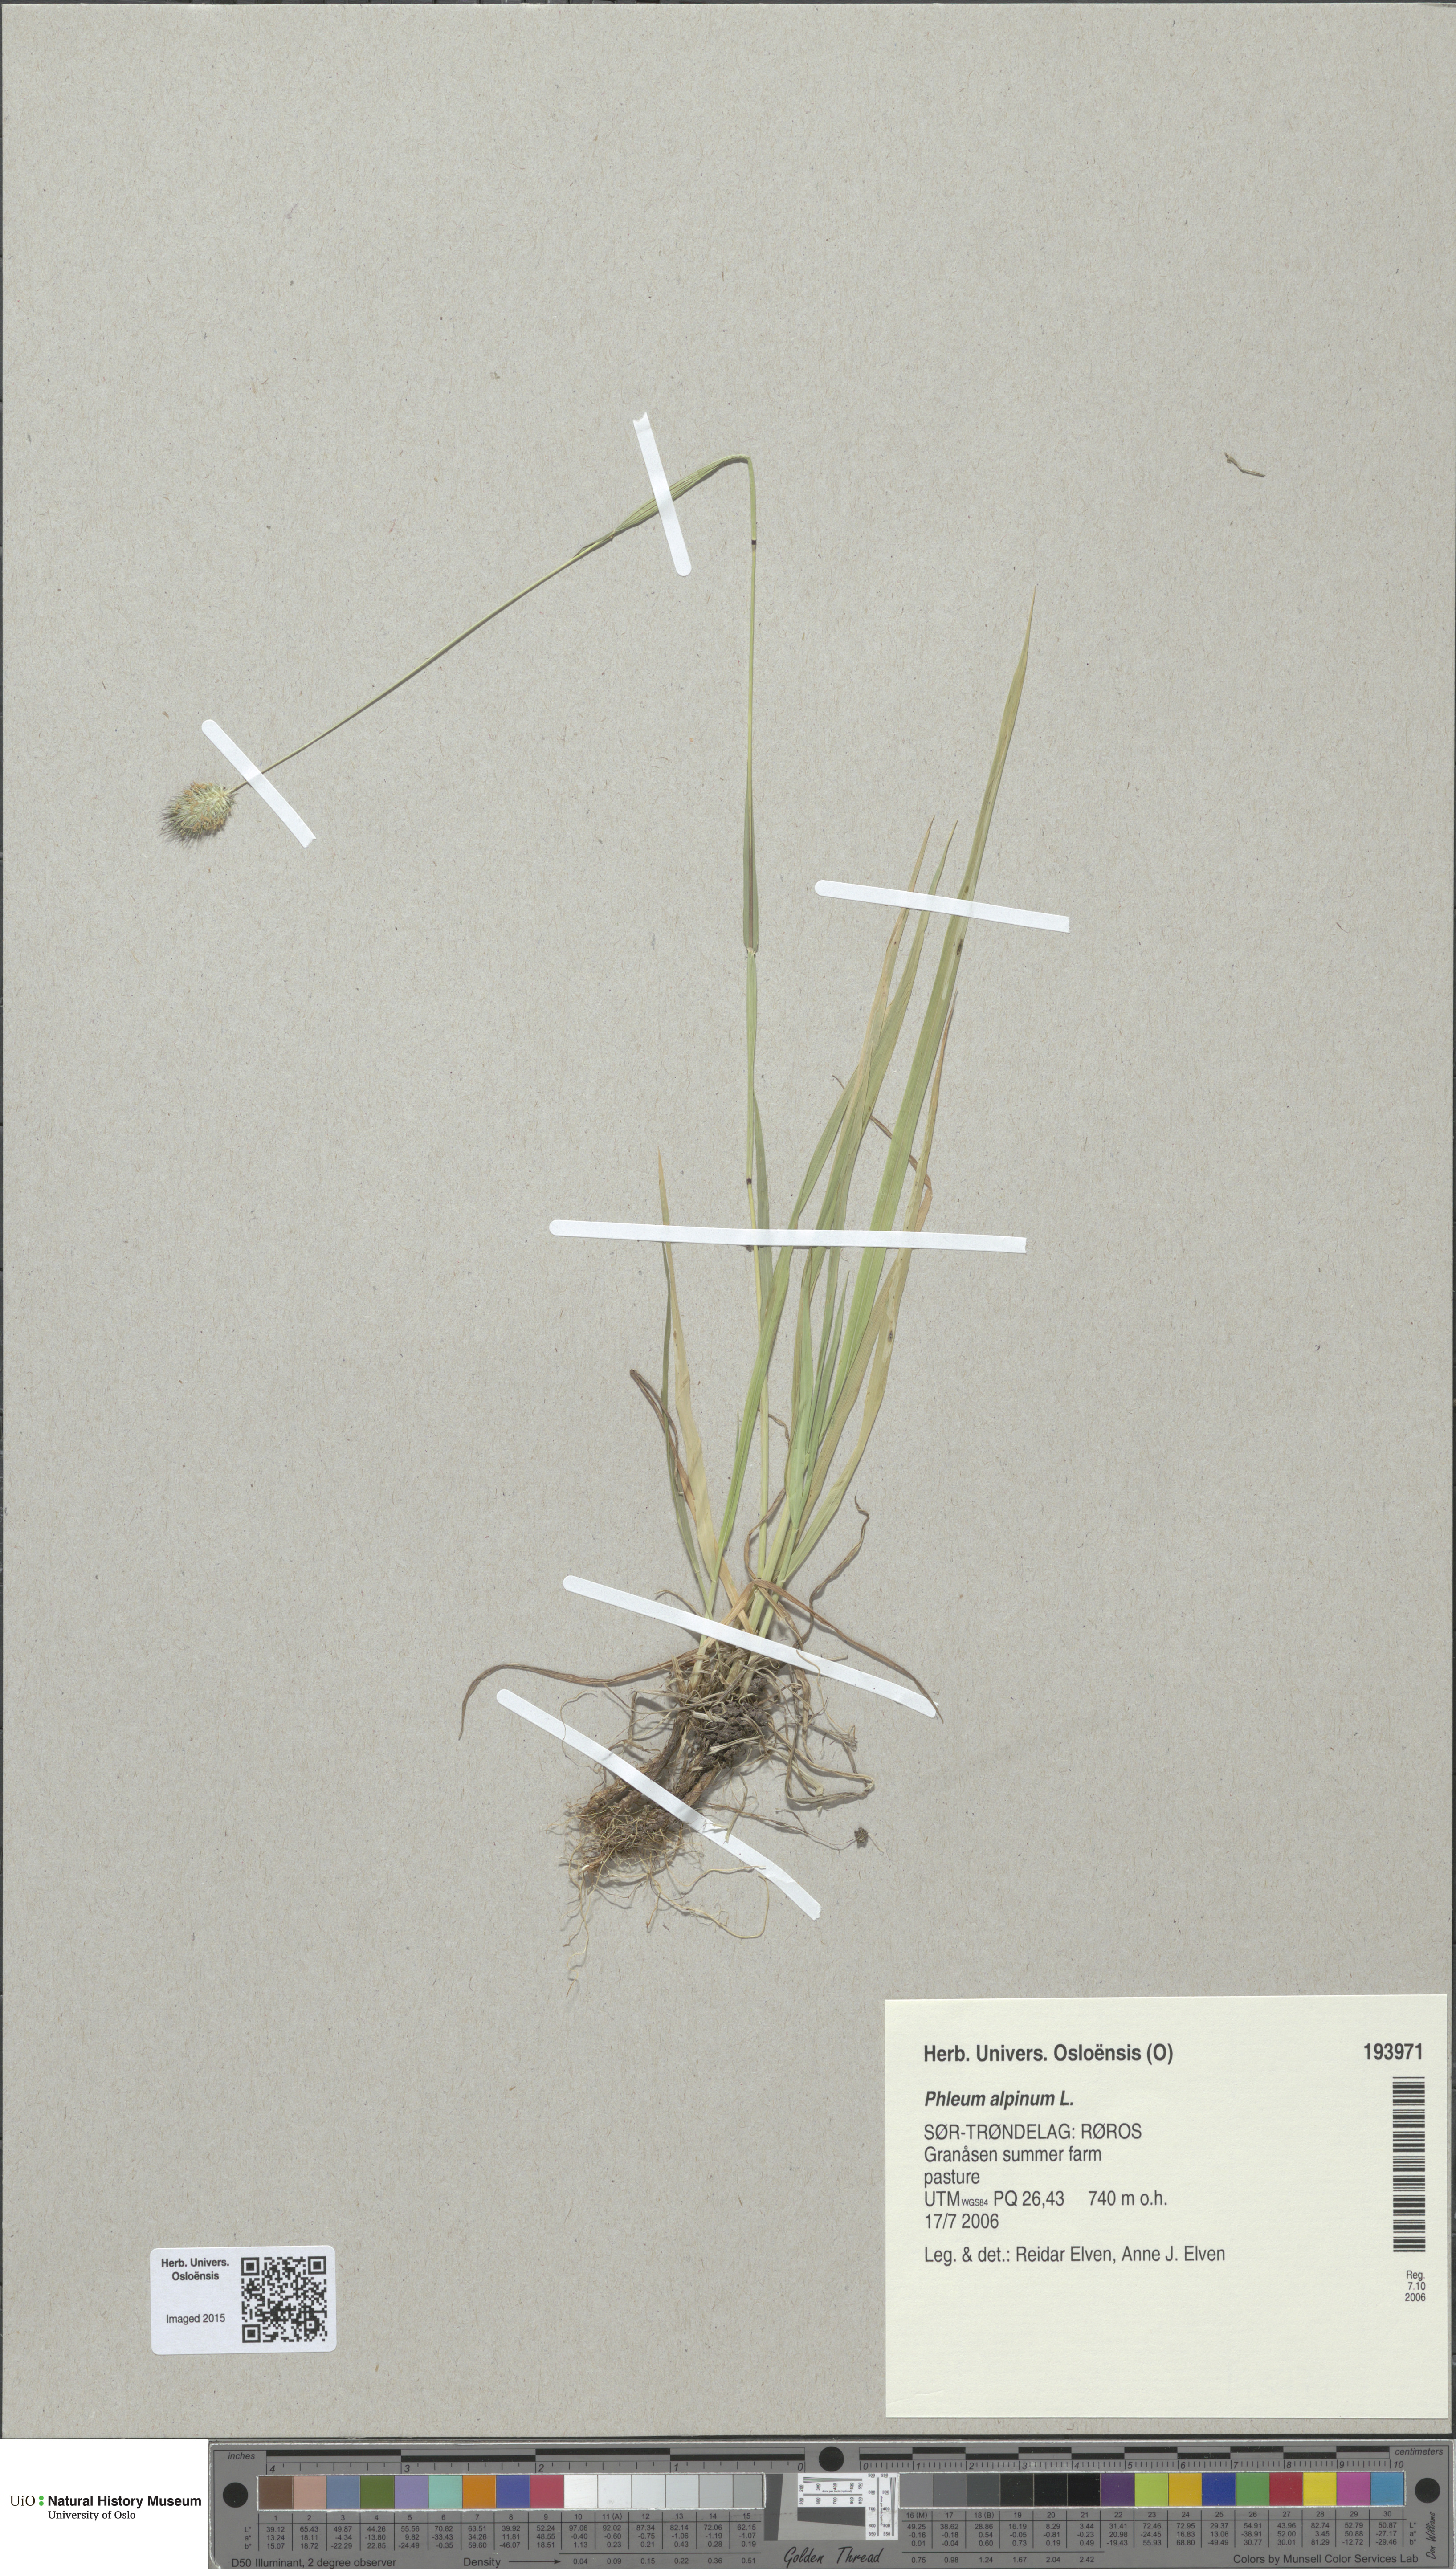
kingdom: Plantae
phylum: Tracheophyta
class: Liliopsida
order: Poales
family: Poaceae
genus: Phleum
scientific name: Phleum alpinum
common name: Alpine cat's-tail
